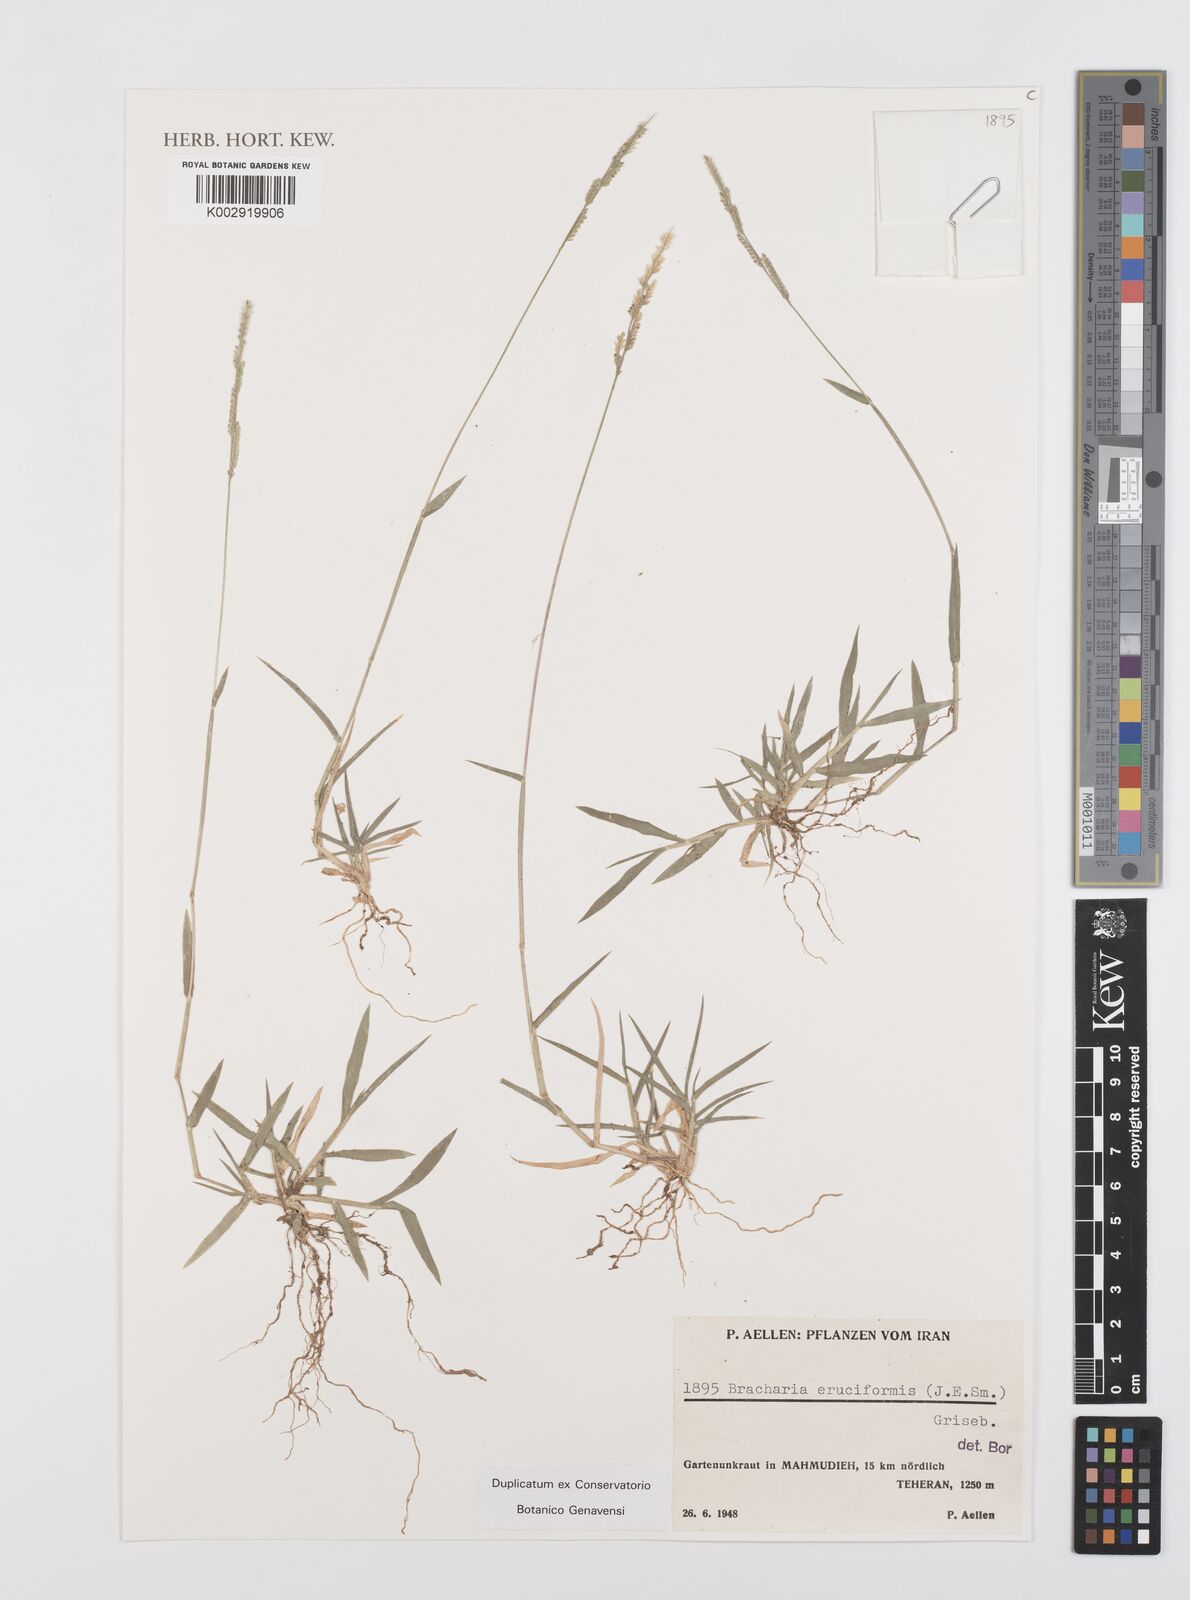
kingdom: Plantae
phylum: Tracheophyta
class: Liliopsida
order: Poales
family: Poaceae
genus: Moorochloa
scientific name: Moorochloa eruciformis
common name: Sweet signalgrass
